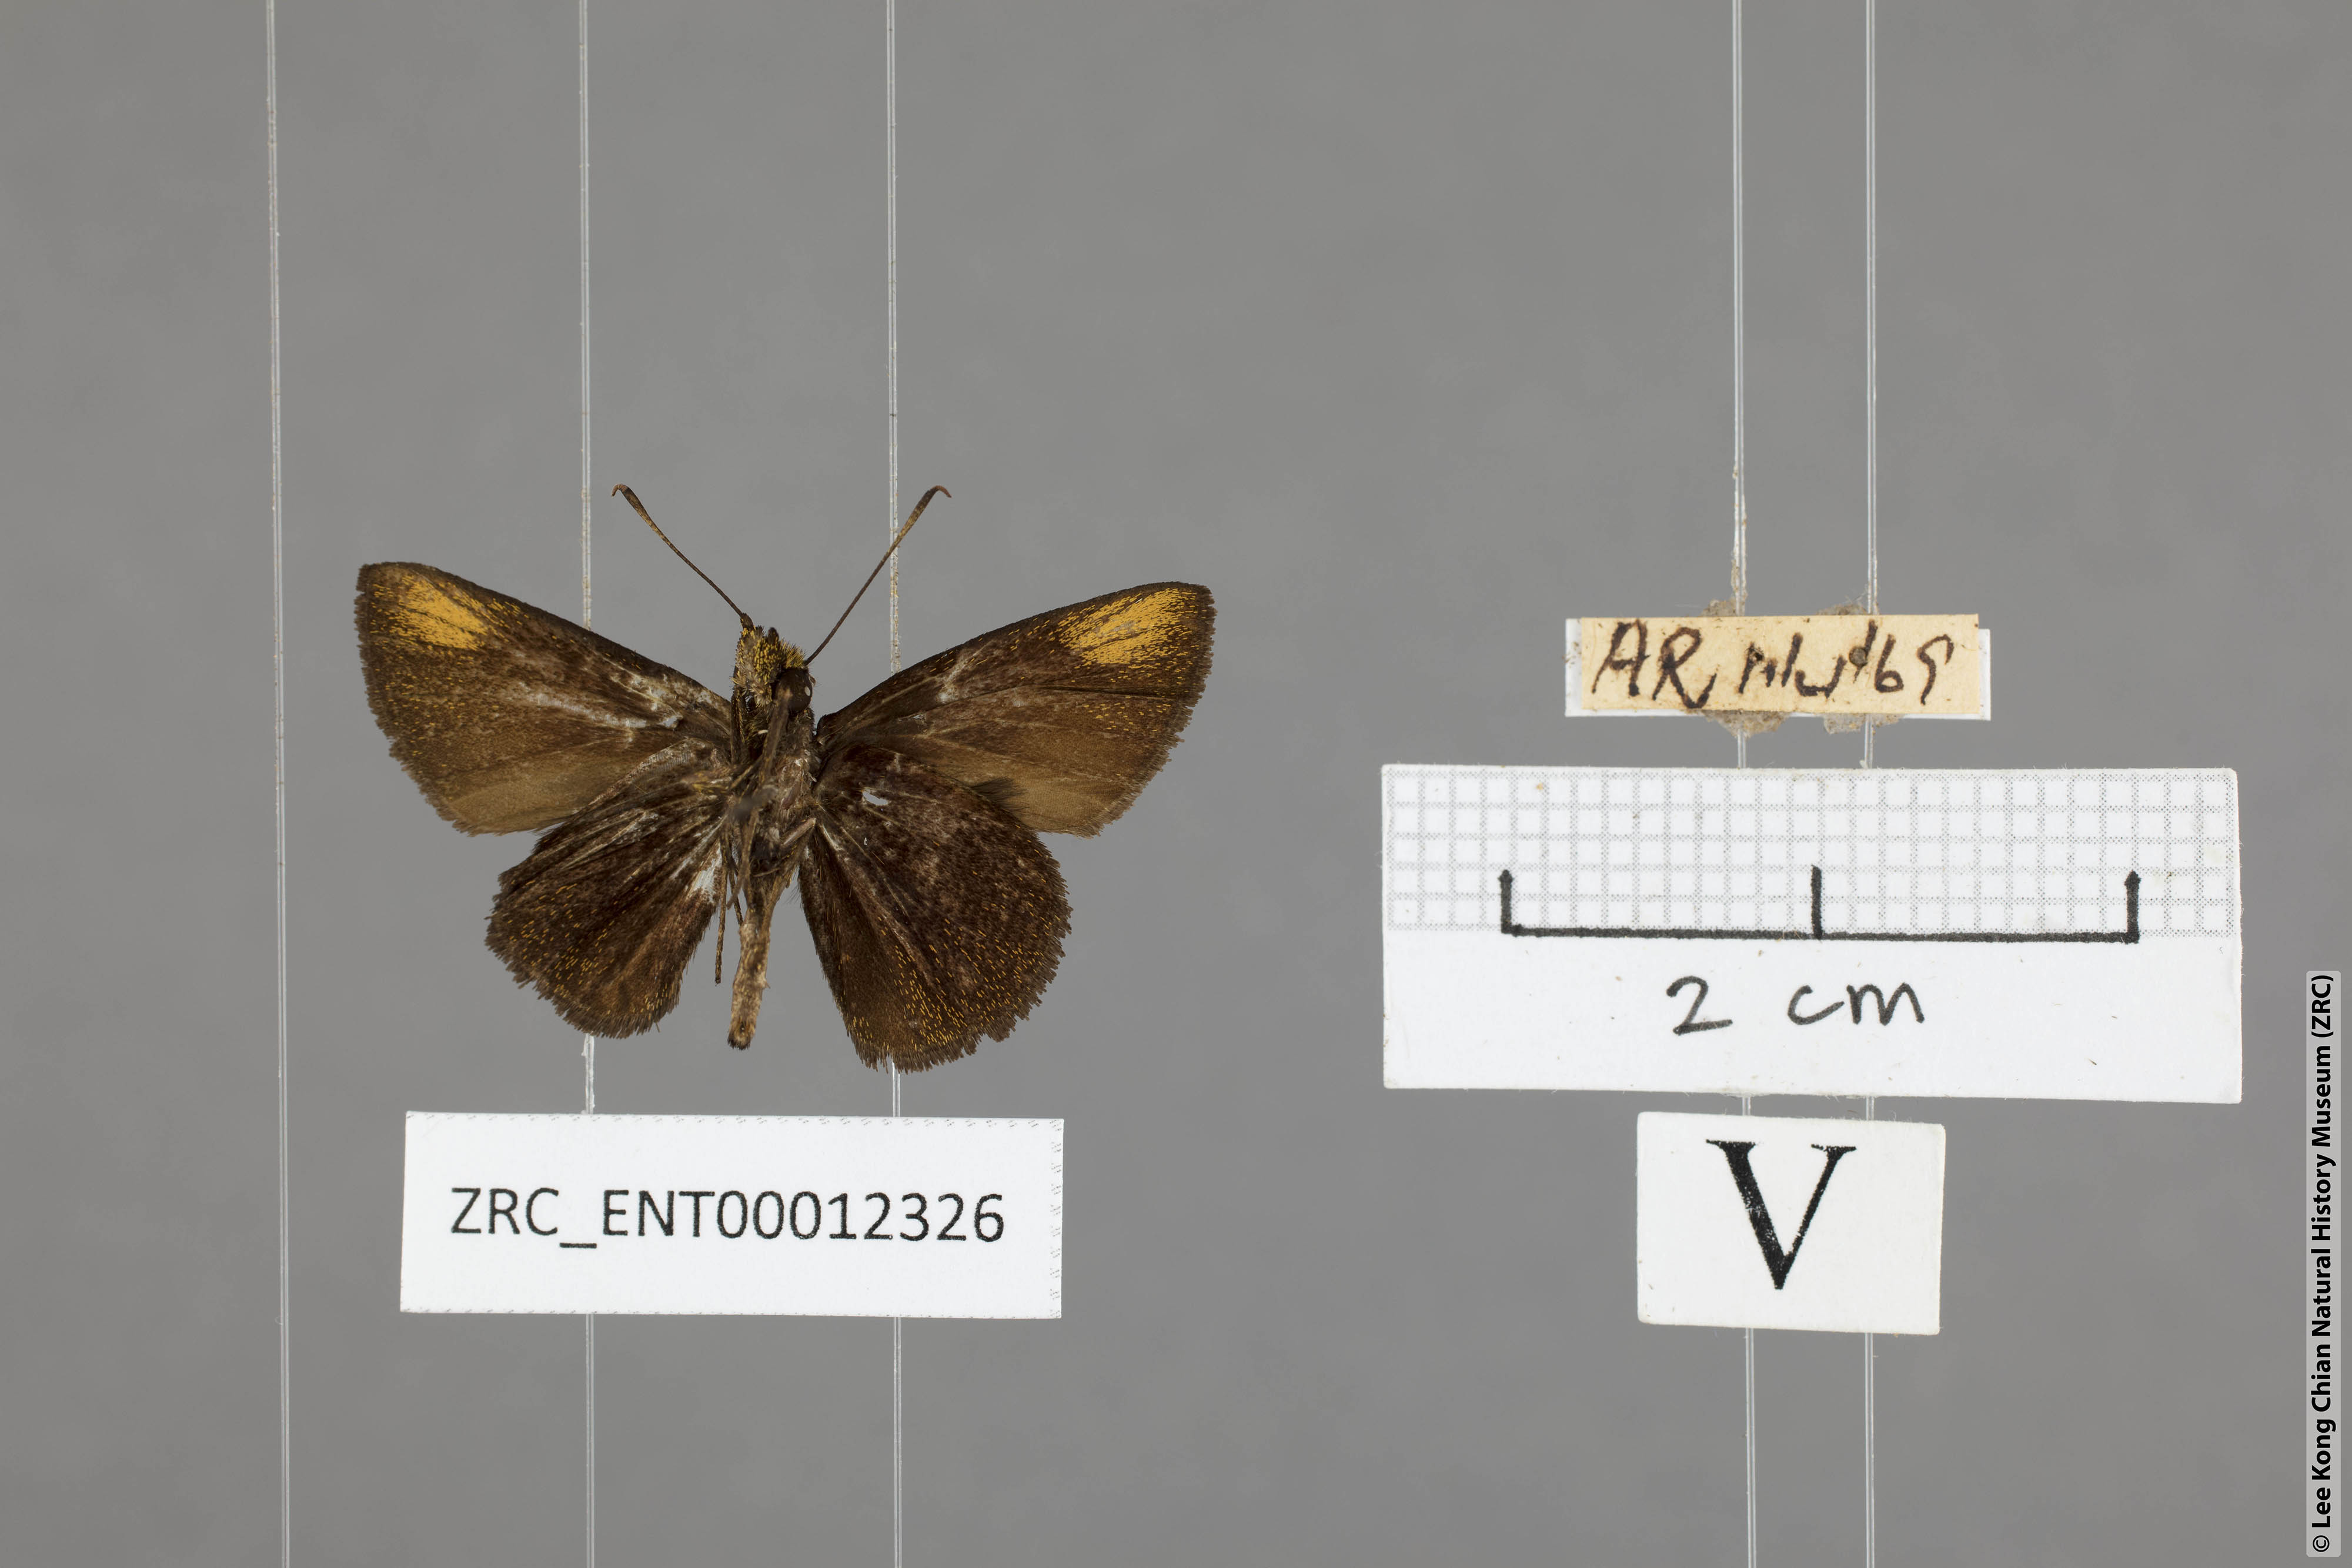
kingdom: Animalia
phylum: Arthropoda
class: Insecta
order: Lepidoptera
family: Hesperiidae
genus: Arnetta
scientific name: Arnetta verones
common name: Sumatran bob
